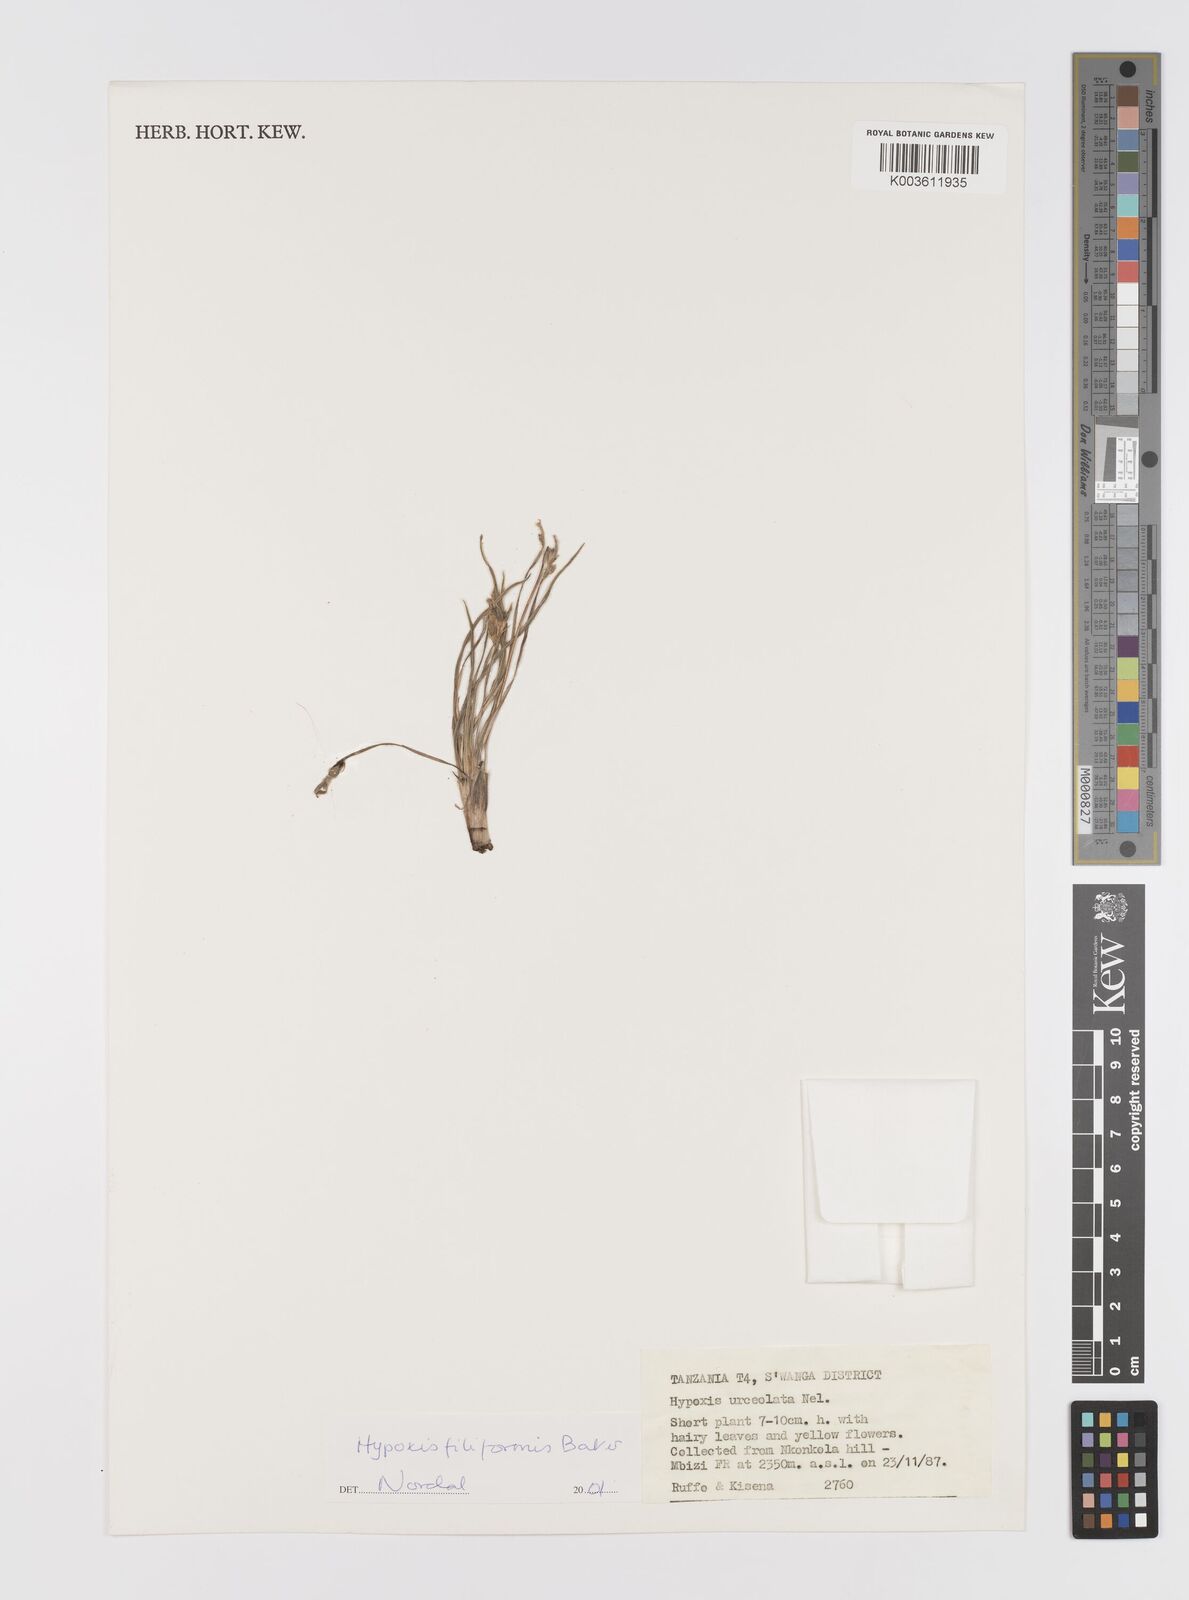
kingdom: Plantae
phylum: Tracheophyta
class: Liliopsida
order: Asparagales
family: Hypoxidaceae
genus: Hypoxis
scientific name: Hypoxis filiformis
